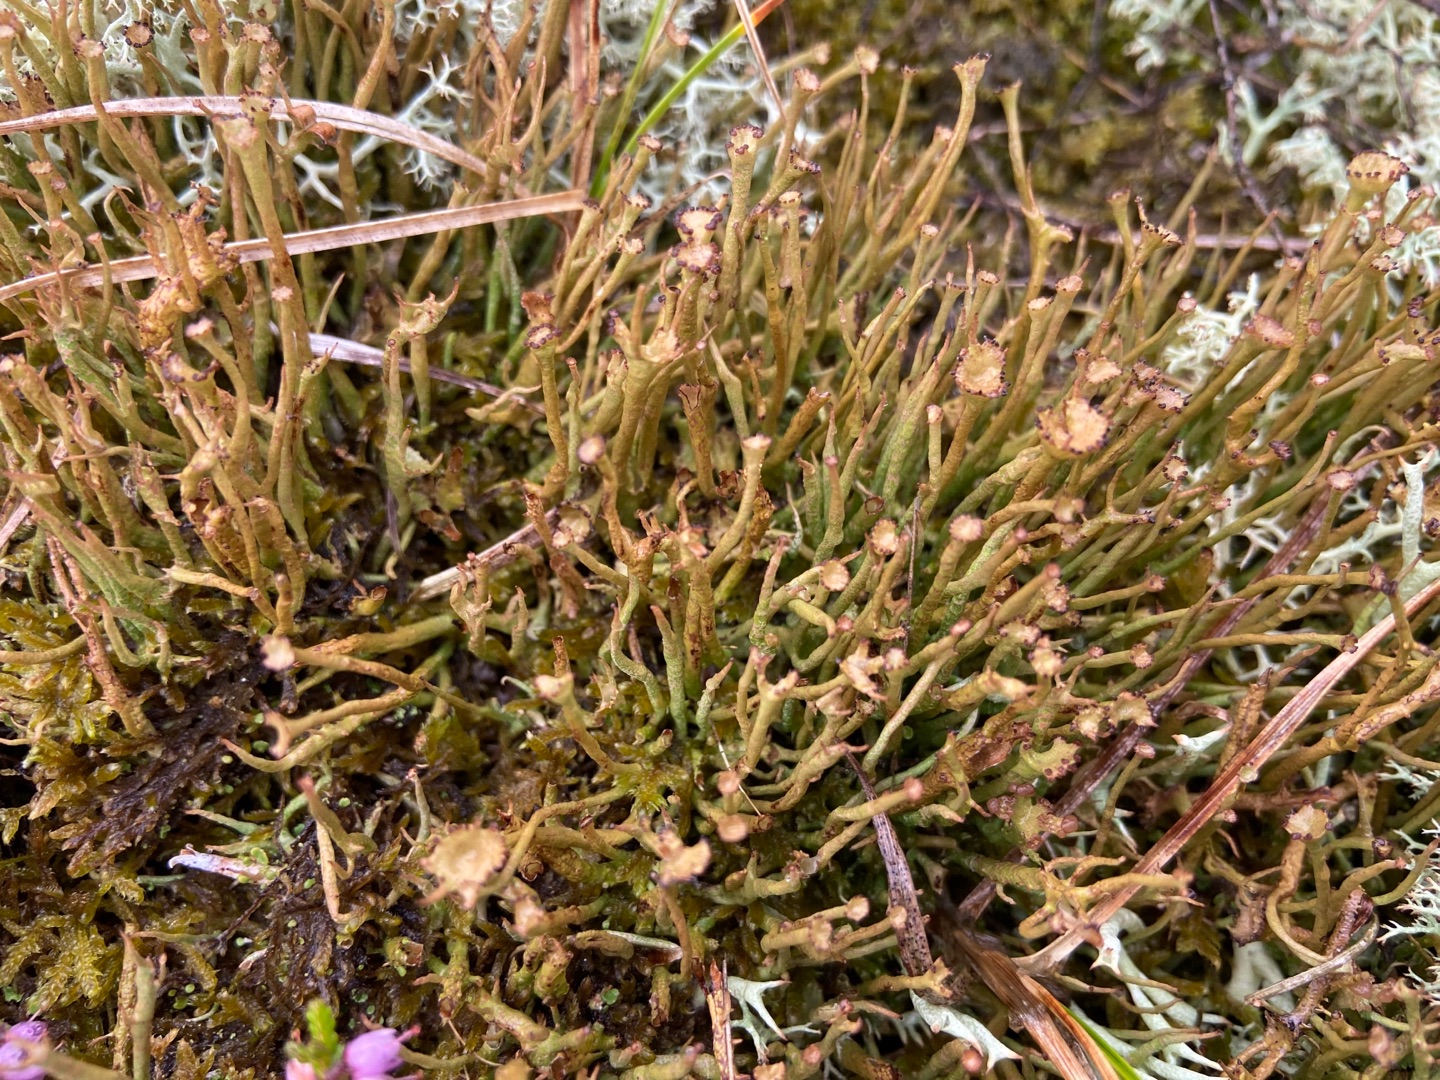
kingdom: Fungi
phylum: Ascomycota
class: Lecanoromycetes
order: Lecanorales
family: Cladoniaceae
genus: Cladonia
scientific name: Cladonia gracilis
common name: Slank bægerlav
